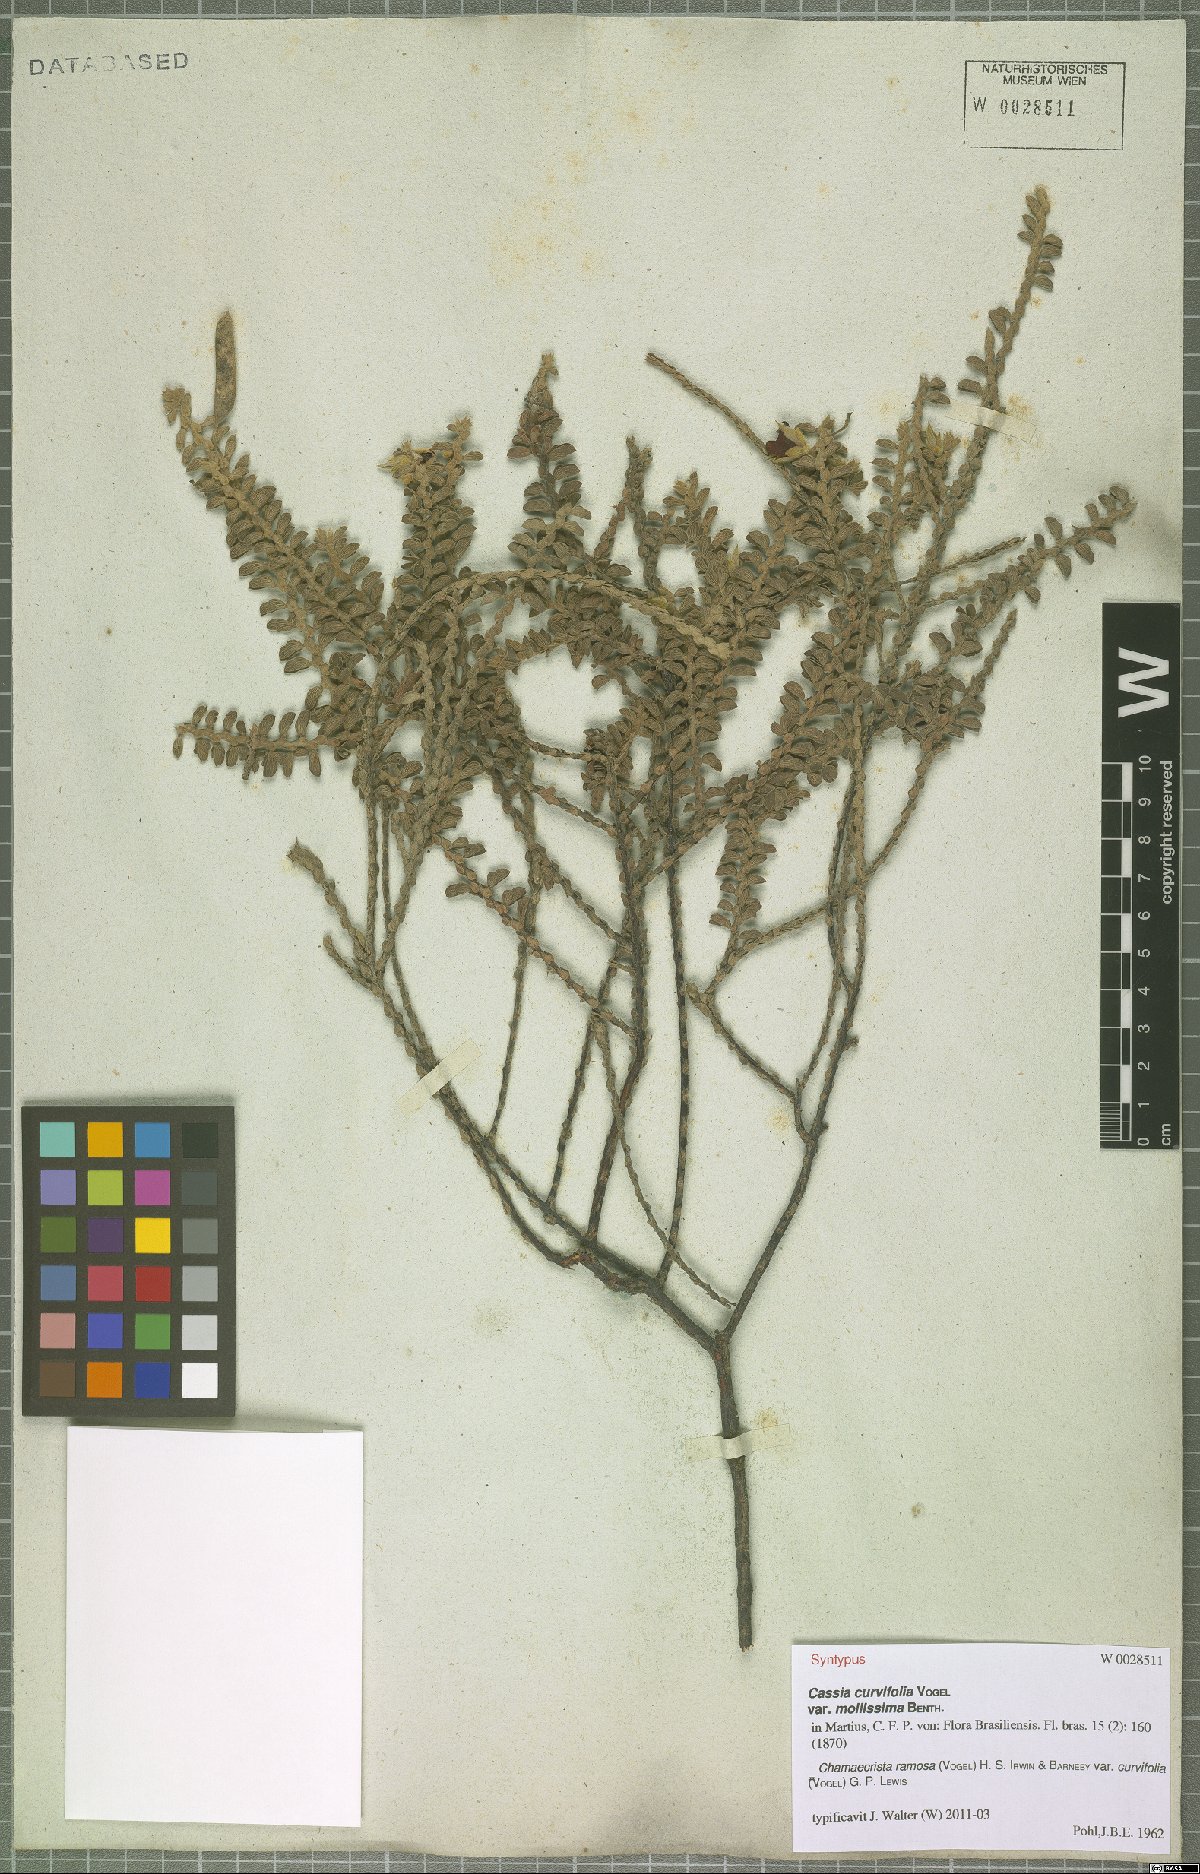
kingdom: Plantae
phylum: Tracheophyta
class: Magnoliopsida
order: Fabales
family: Fabaceae
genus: Chamaecrista
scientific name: Chamaecrista ramosa
